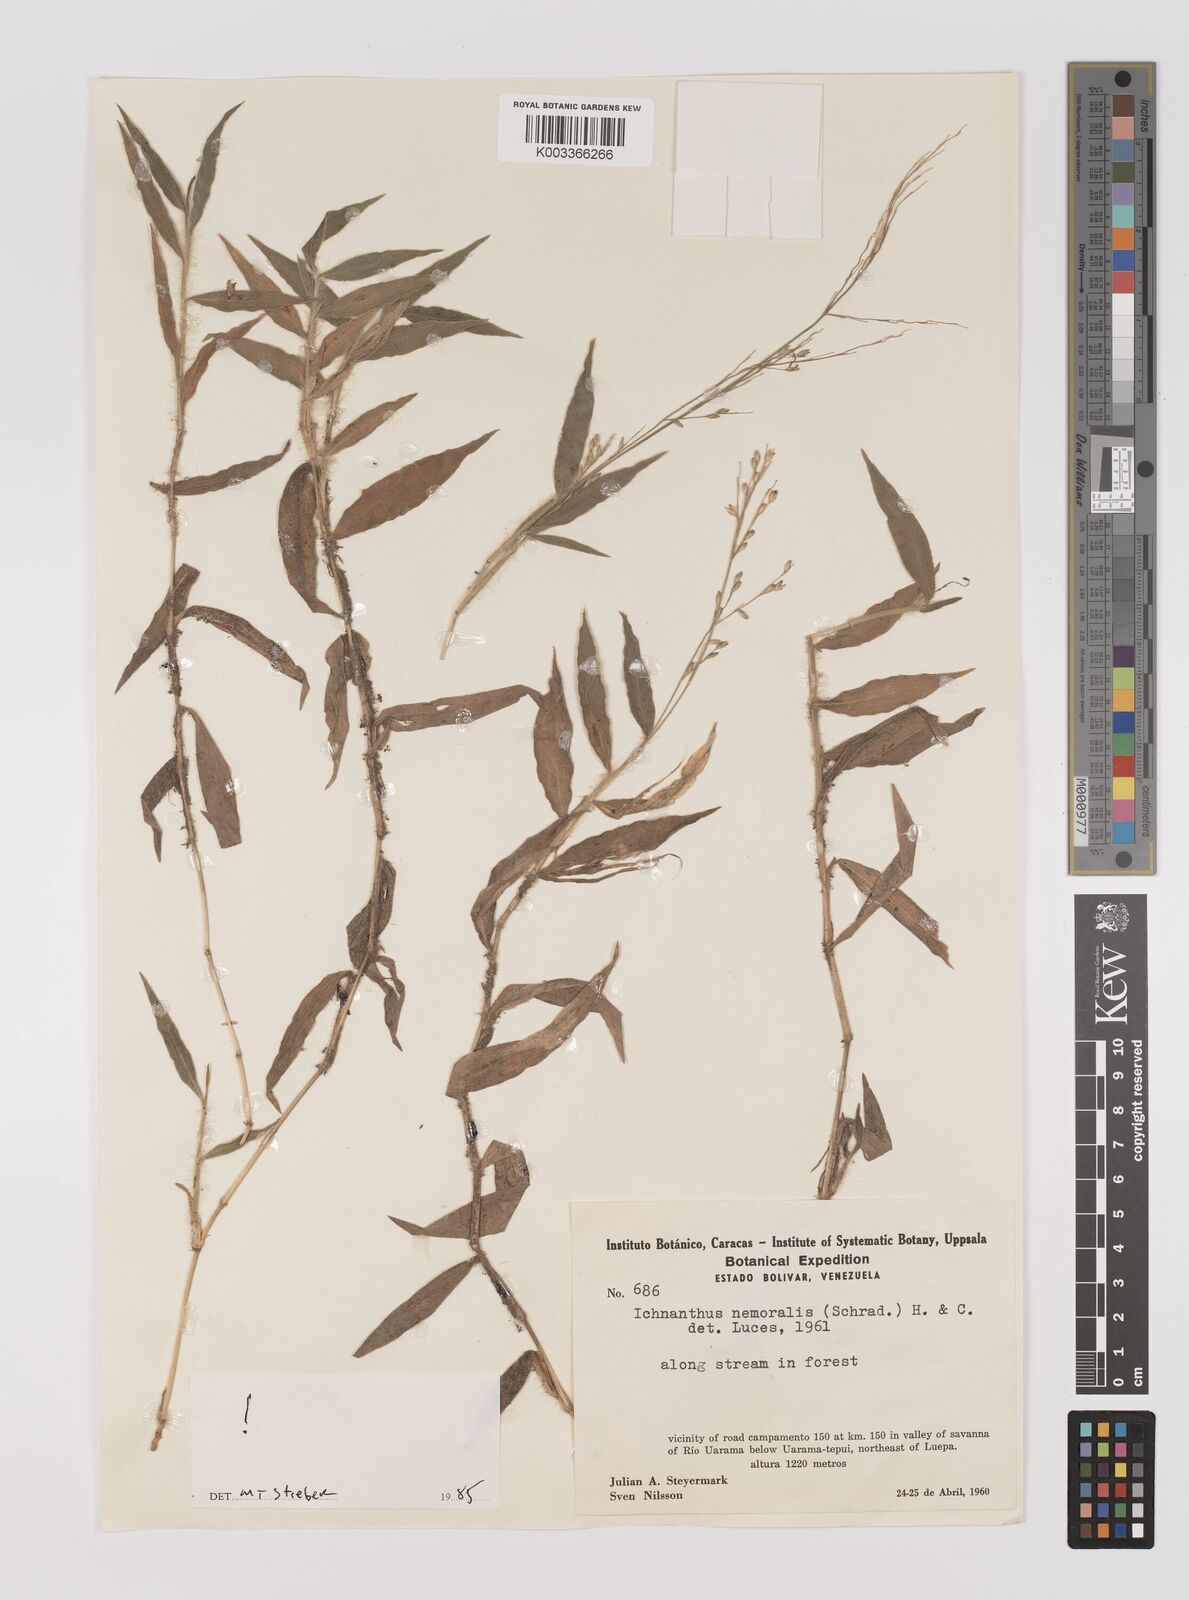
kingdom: Plantae
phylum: Tracheophyta
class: Liliopsida
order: Poales
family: Poaceae
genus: Ichnanthus
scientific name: Ichnanthus nemoralis
